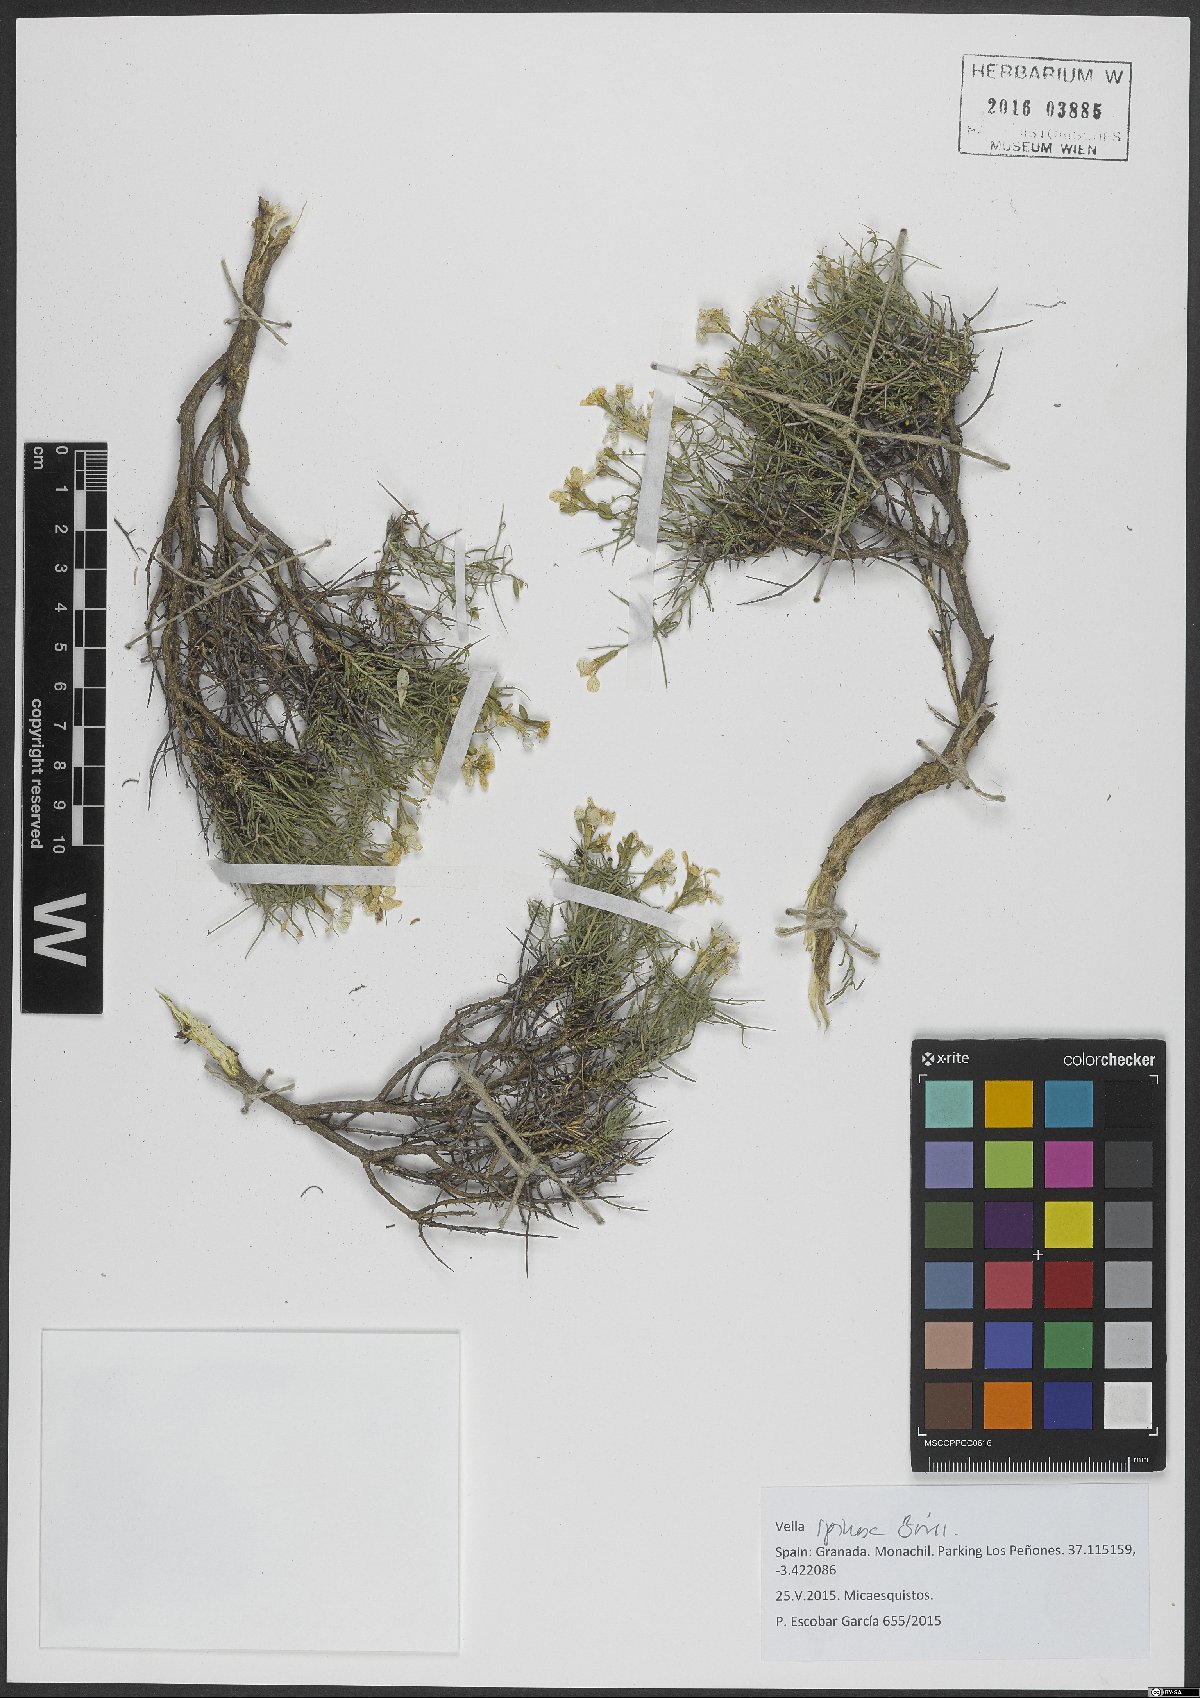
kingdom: Plantae
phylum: Tracheophyta
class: Magnoliopsida
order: Brassicales
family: Brassicaceae
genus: Vella
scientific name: Vella spinosa
